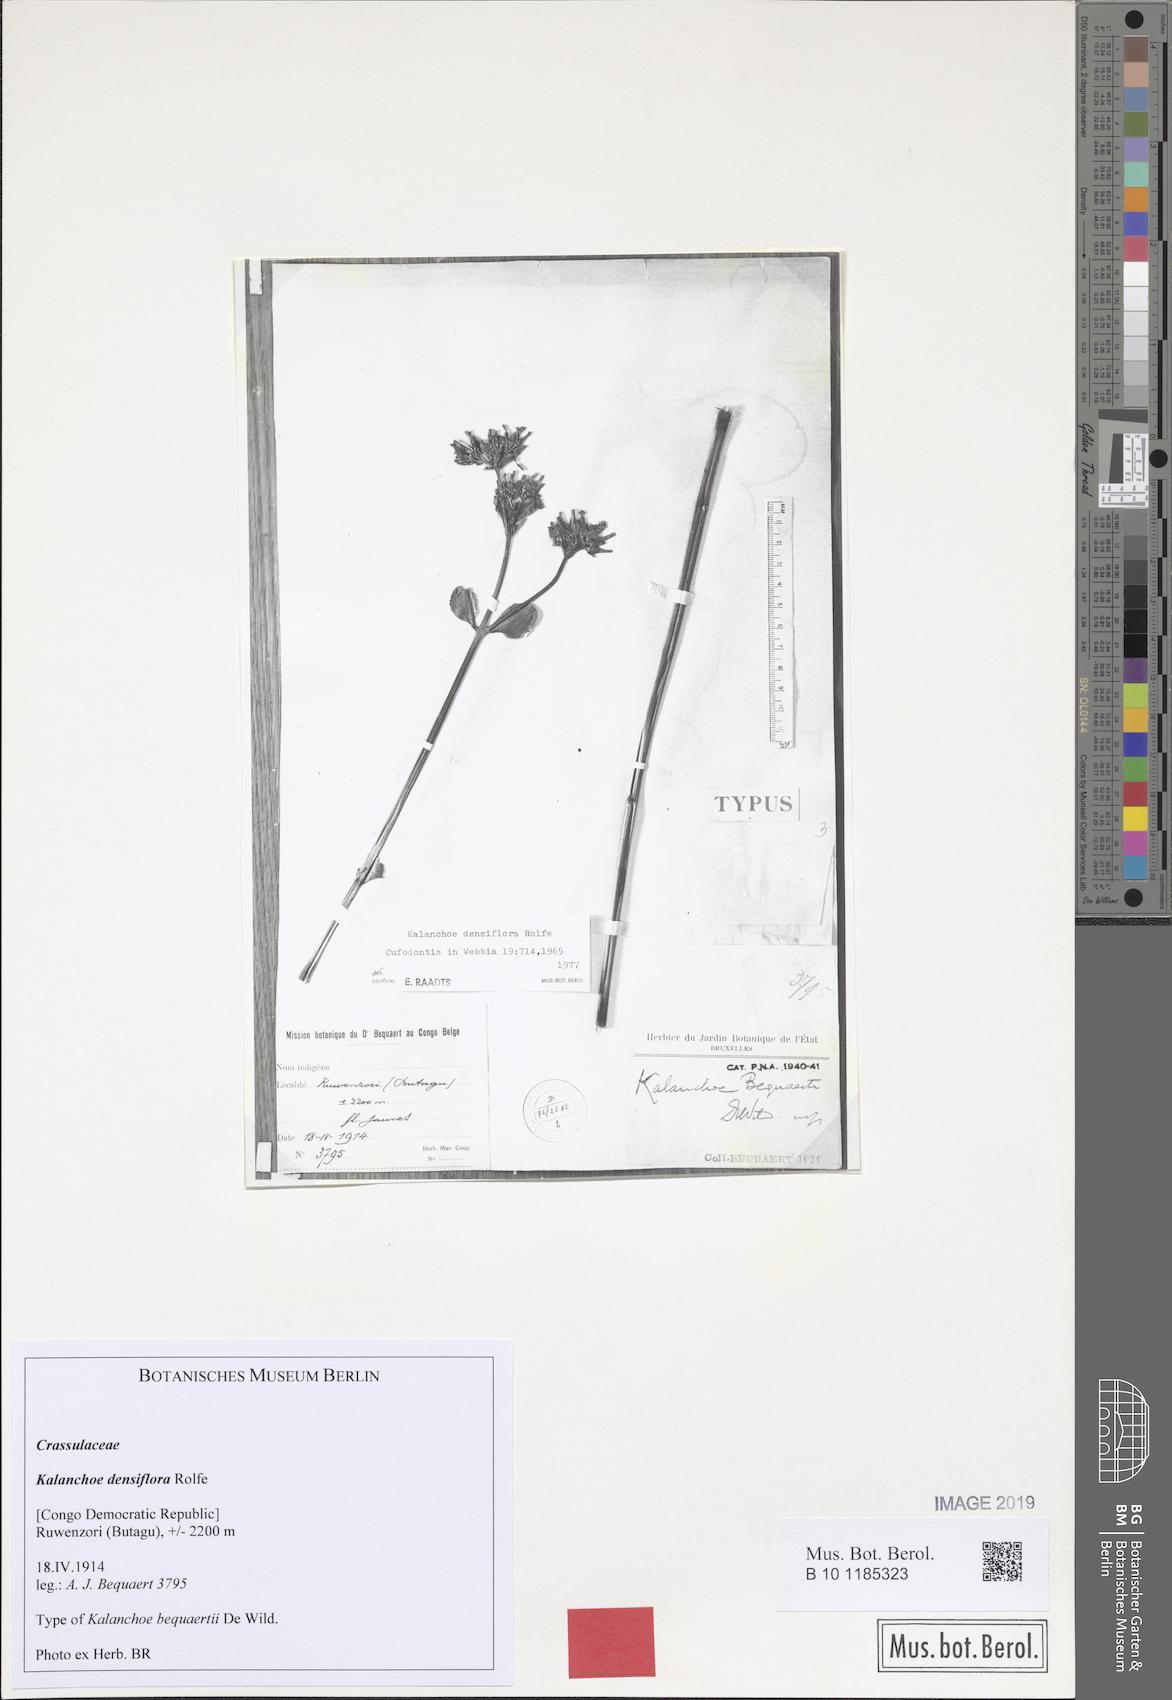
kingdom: Plantae
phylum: Tracheophyta
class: Magnoliopsida
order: Saxifragales
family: Crassulaceae
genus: Kalanchoe
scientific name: Kalanchoe densiflora
